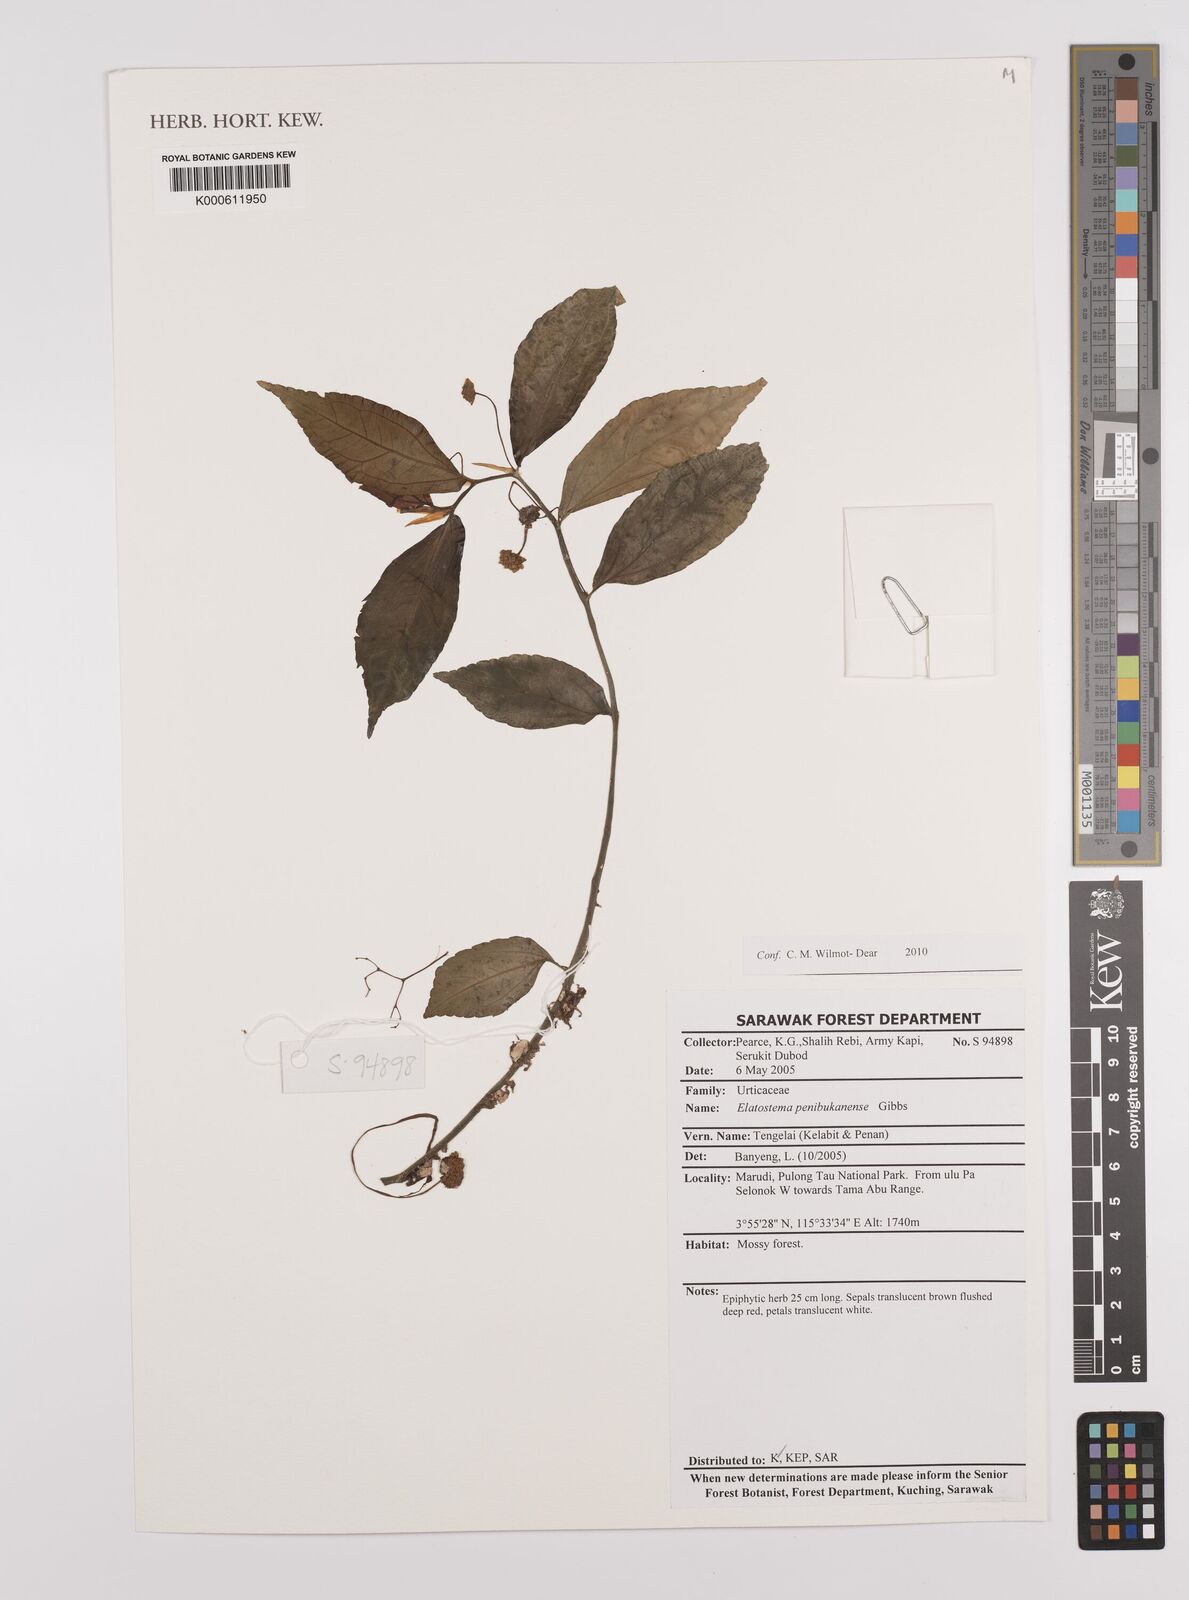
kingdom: Plantae
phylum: Tracheophyta
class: Magnoliopsida
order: Rosales
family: Urticaceae
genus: Elatostema
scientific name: Elatostema
